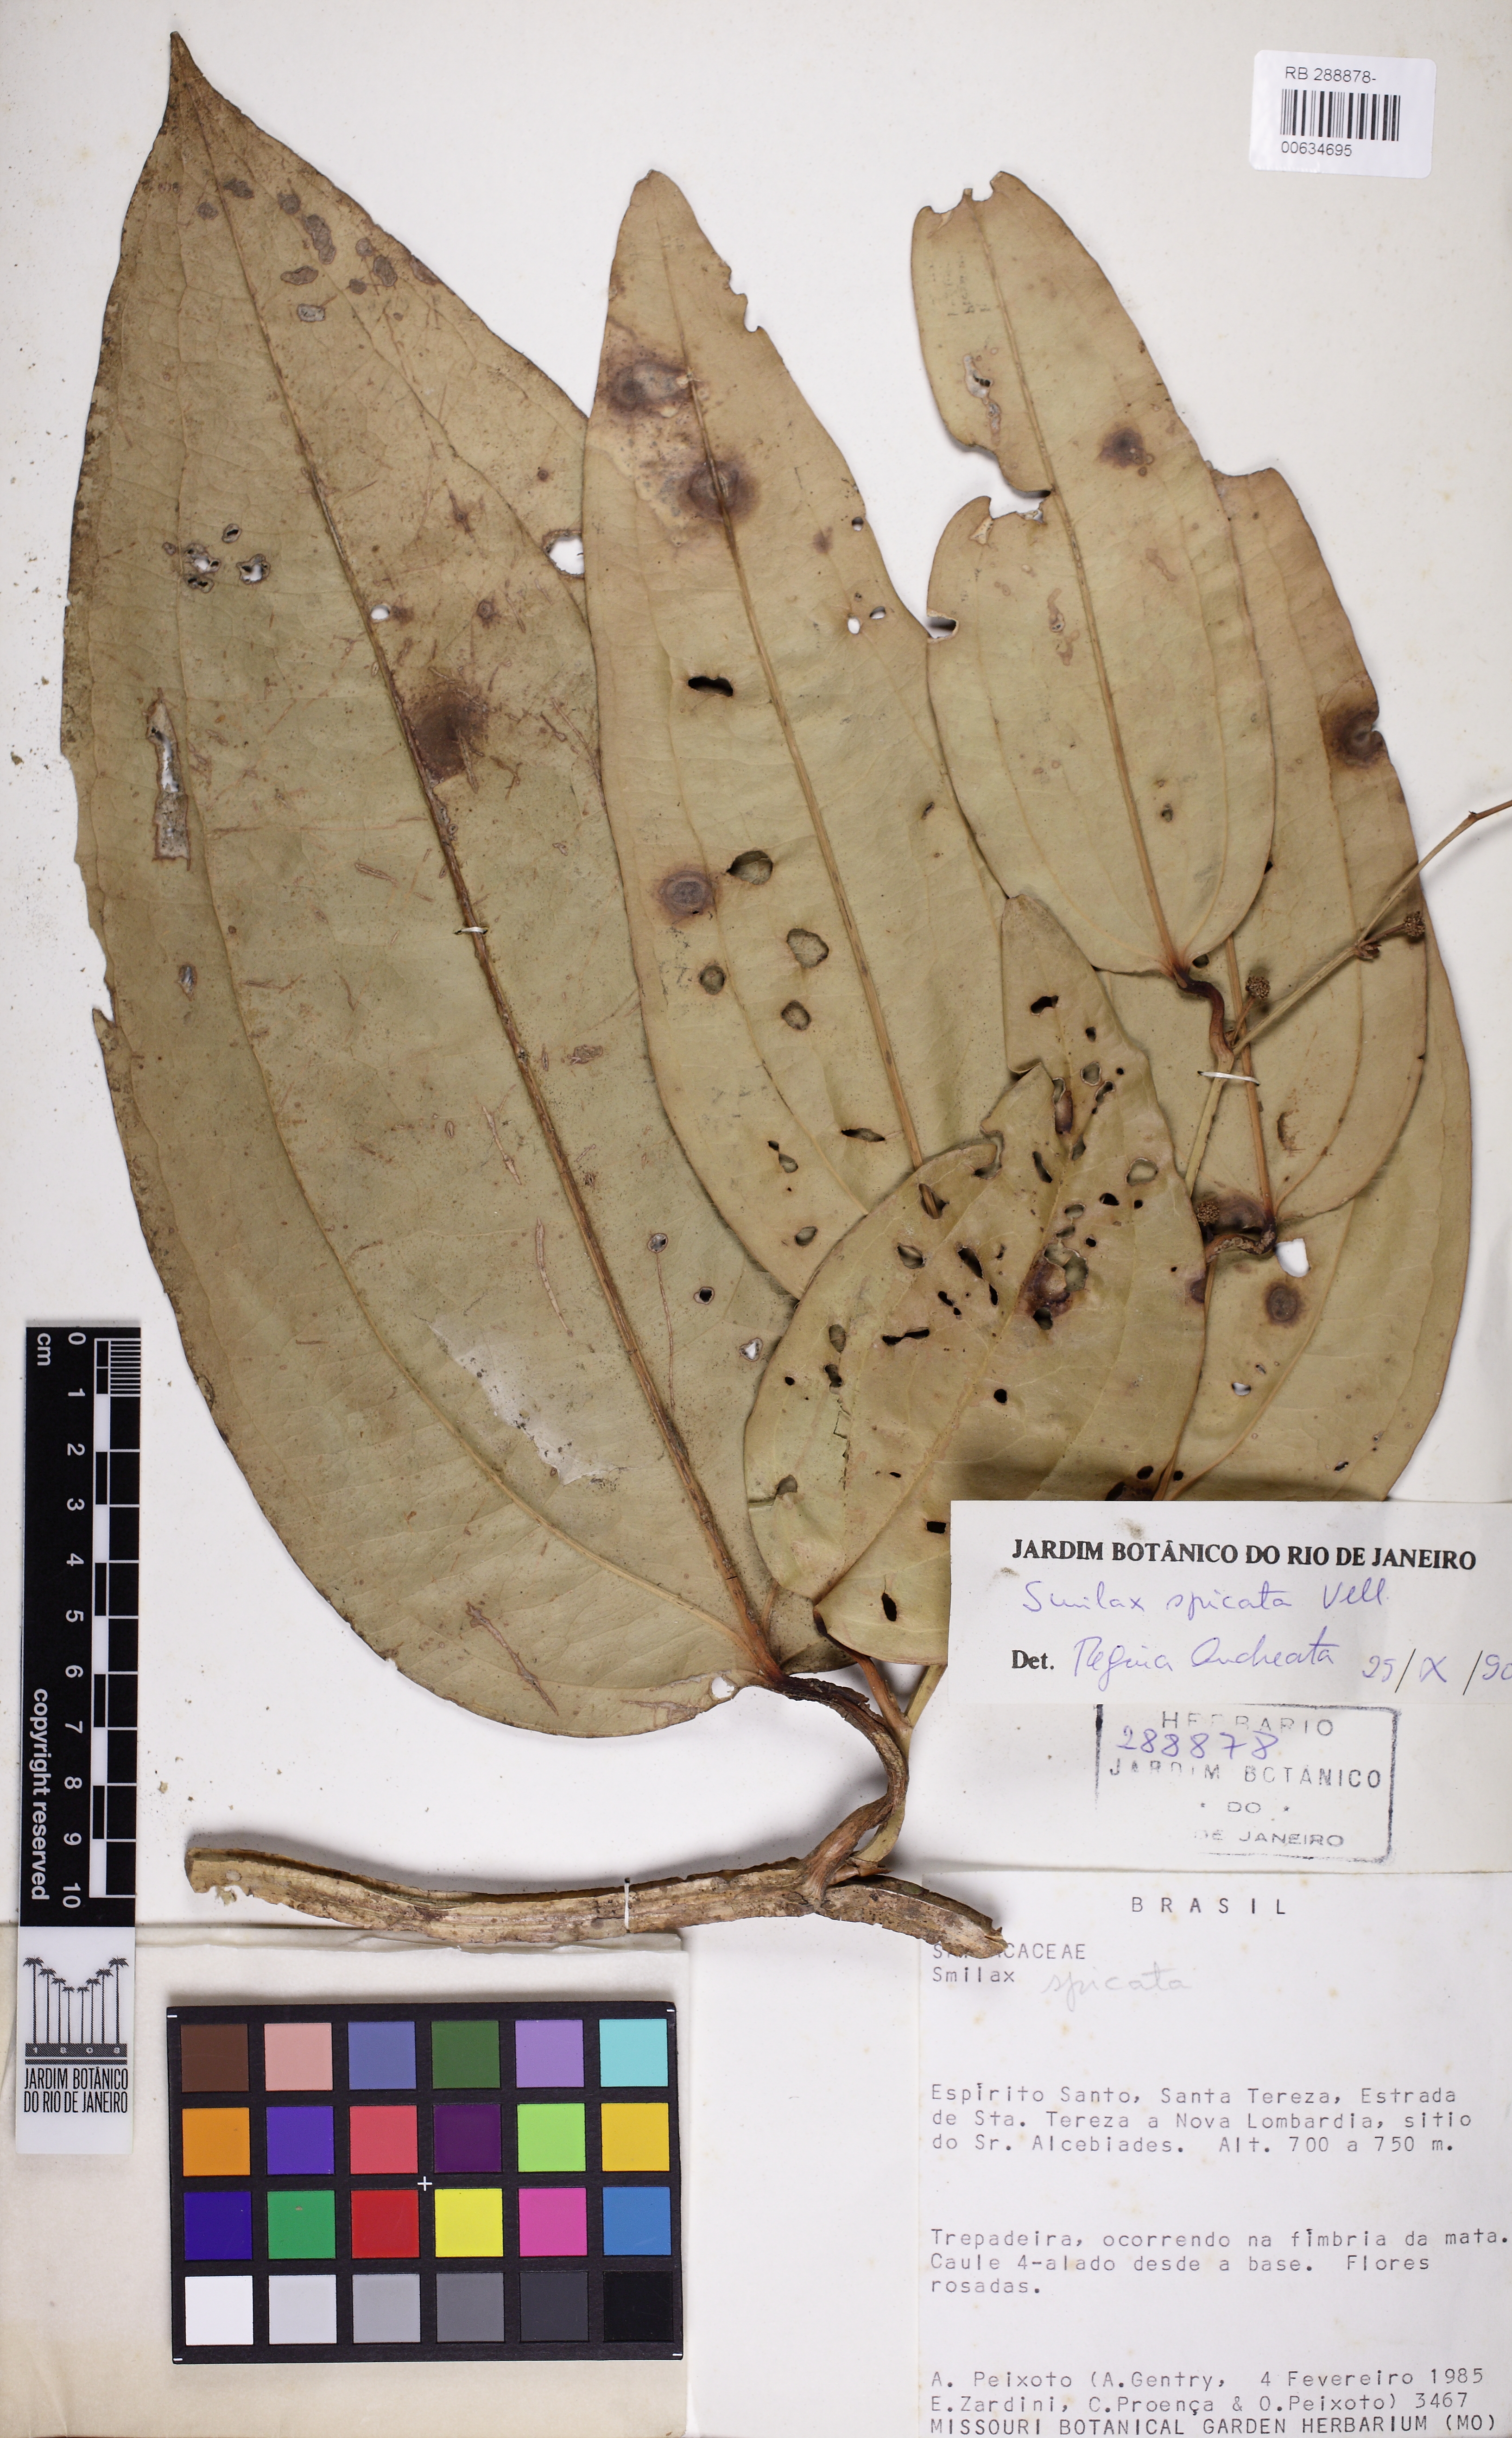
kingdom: Plantae
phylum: Tracheophyta
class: Liliopsida
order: Liliales
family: Smilacaceae
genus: Smilax
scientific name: Smilax spicata
